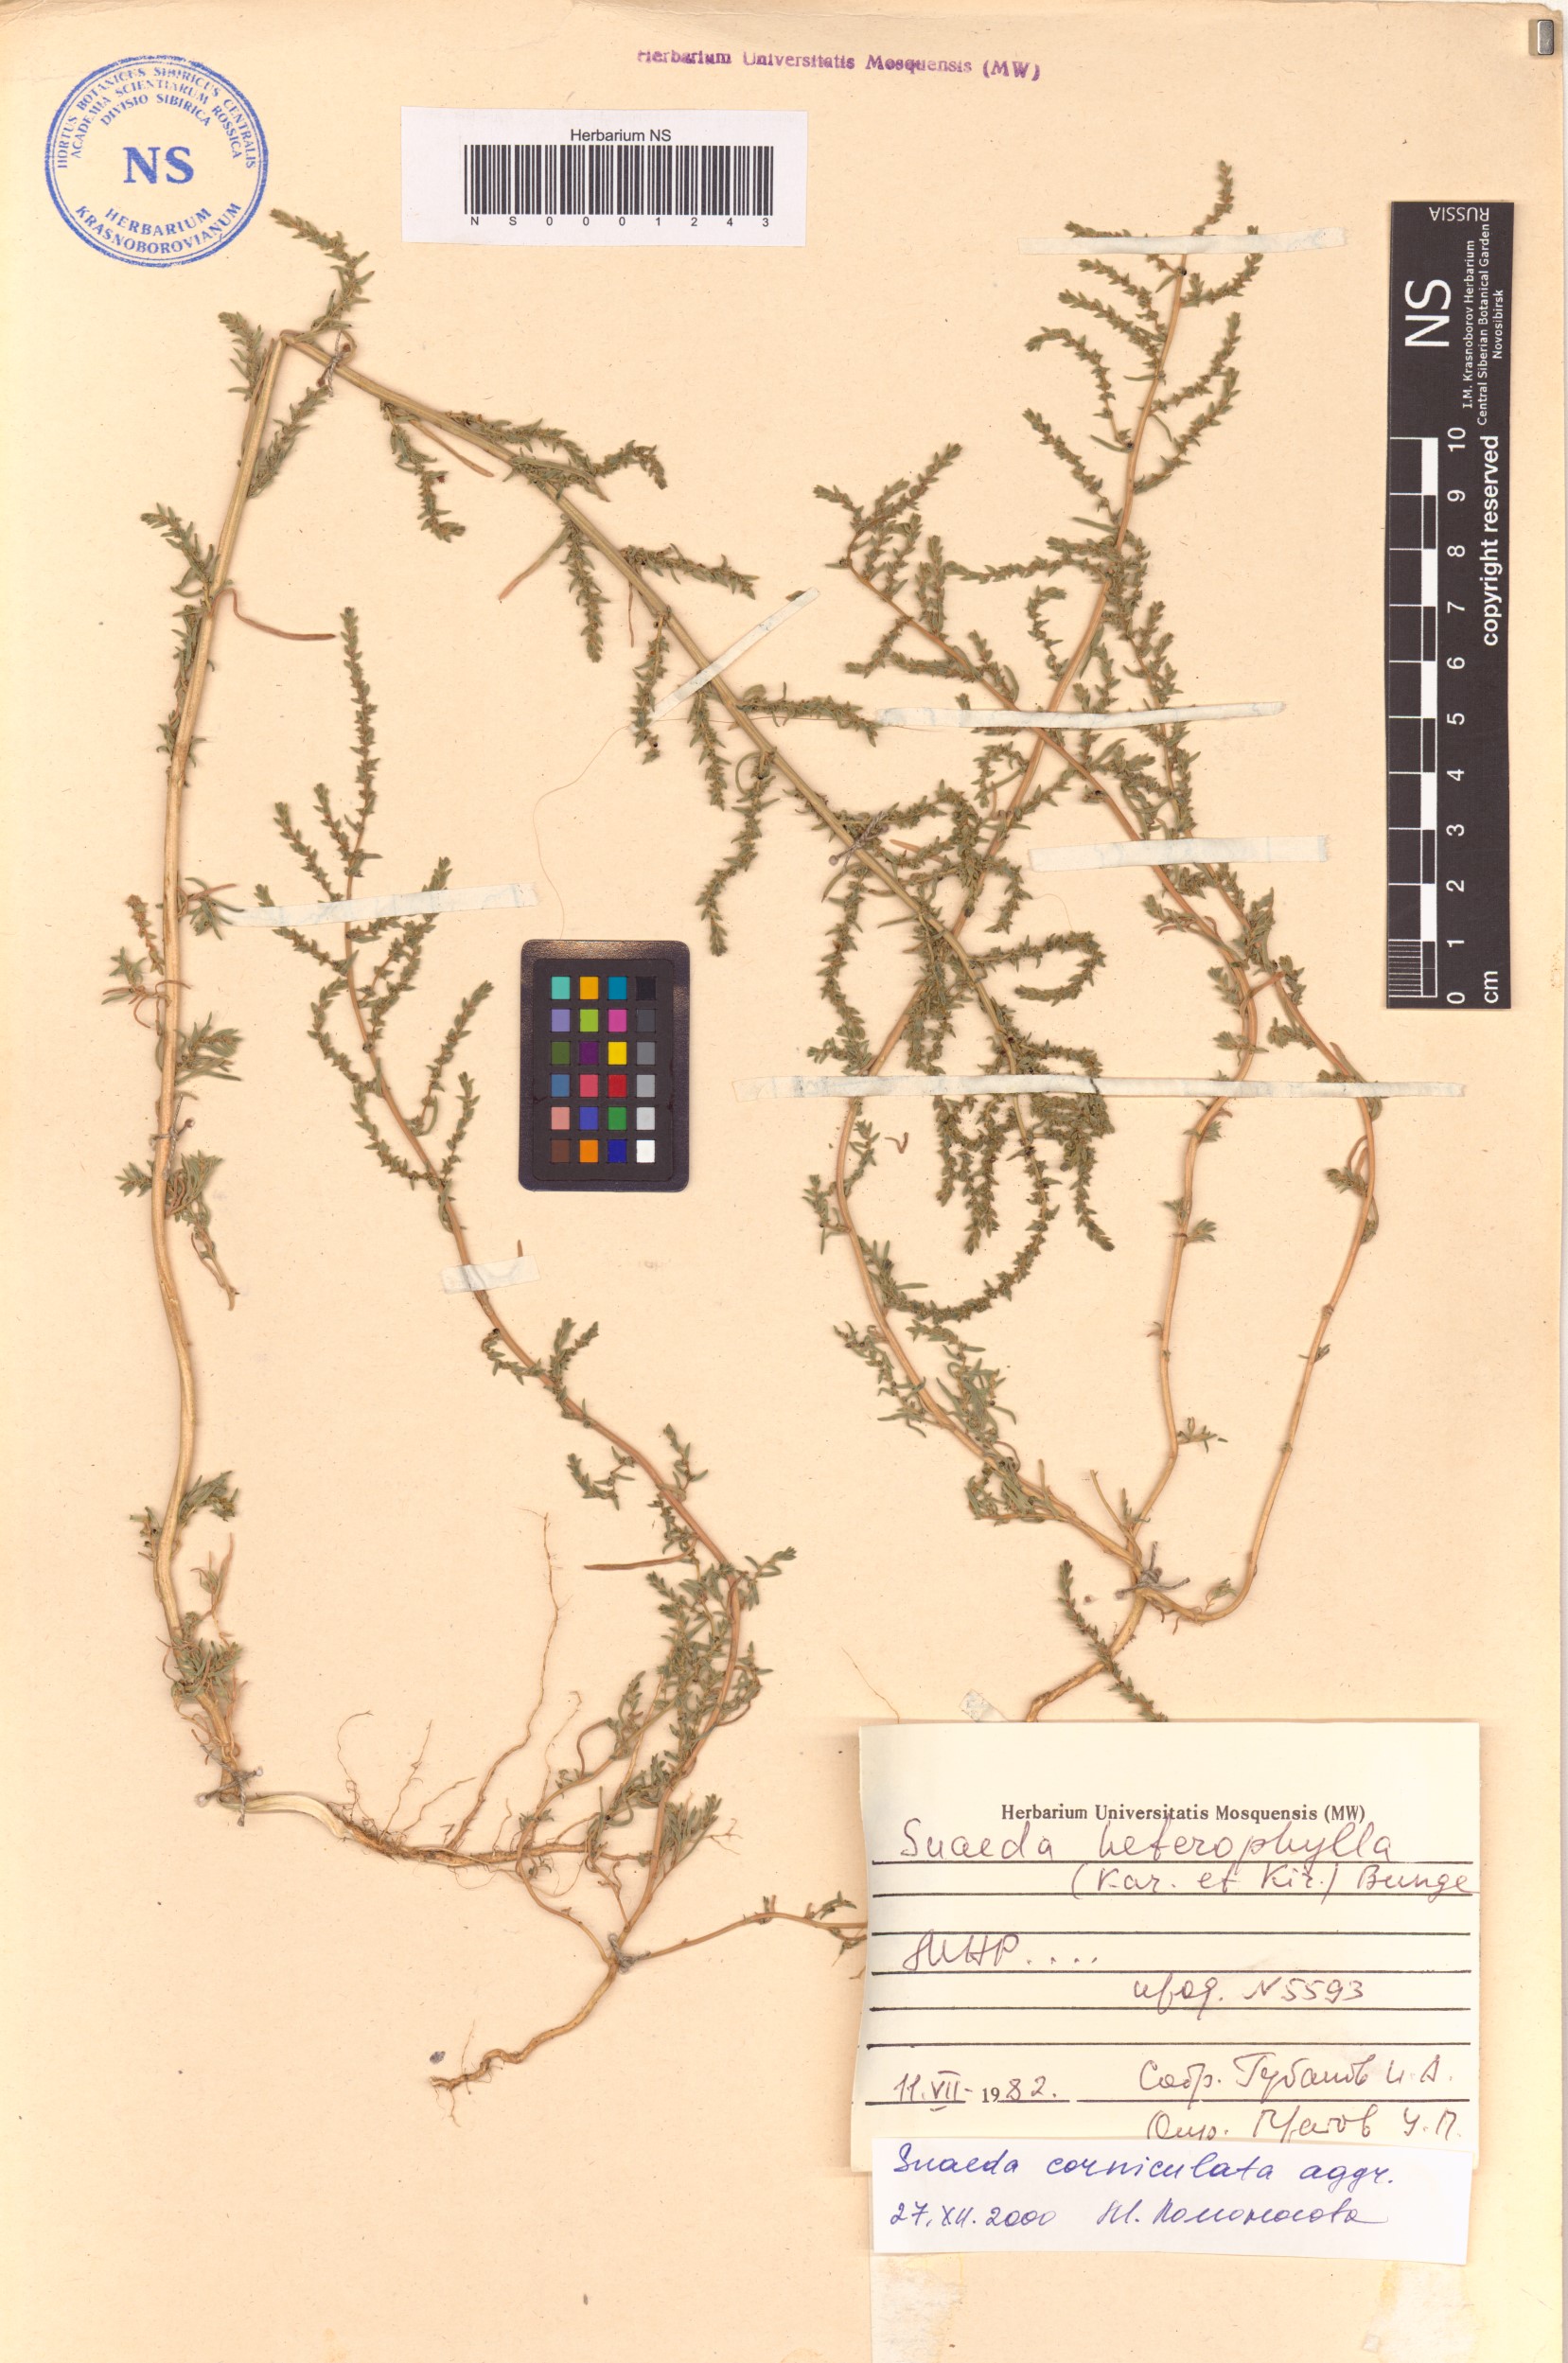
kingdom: Plantae
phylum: Tracheophyta
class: Magnoliopsida
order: Caryophyllales
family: Amaranthaceae
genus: Suaeda
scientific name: Suaeda corniculata
